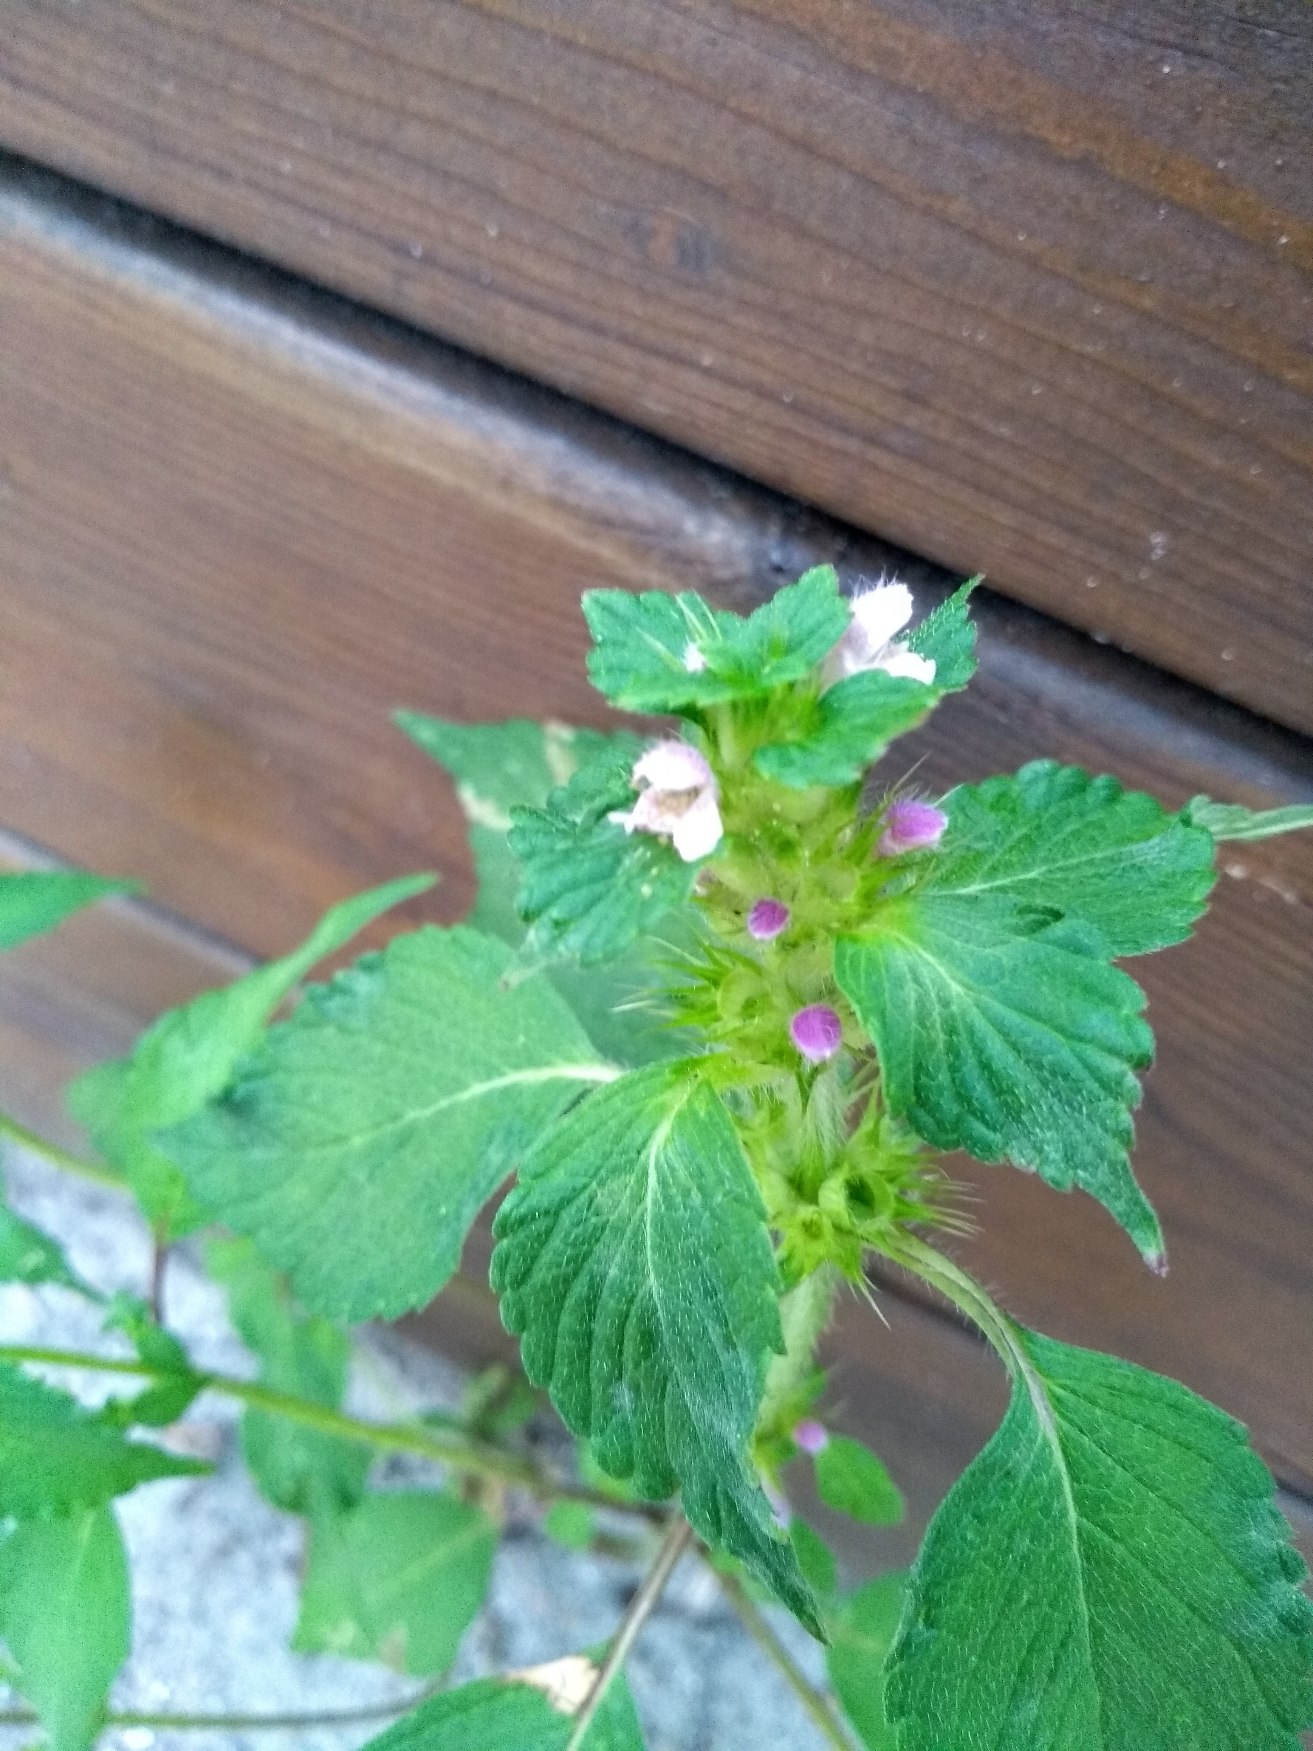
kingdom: Plantae
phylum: Tracheophyta
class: Magnoliopsida
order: Lamiales
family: Lamiaceae
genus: Galeopsis
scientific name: Galeopsis
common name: Hanekroslægten
